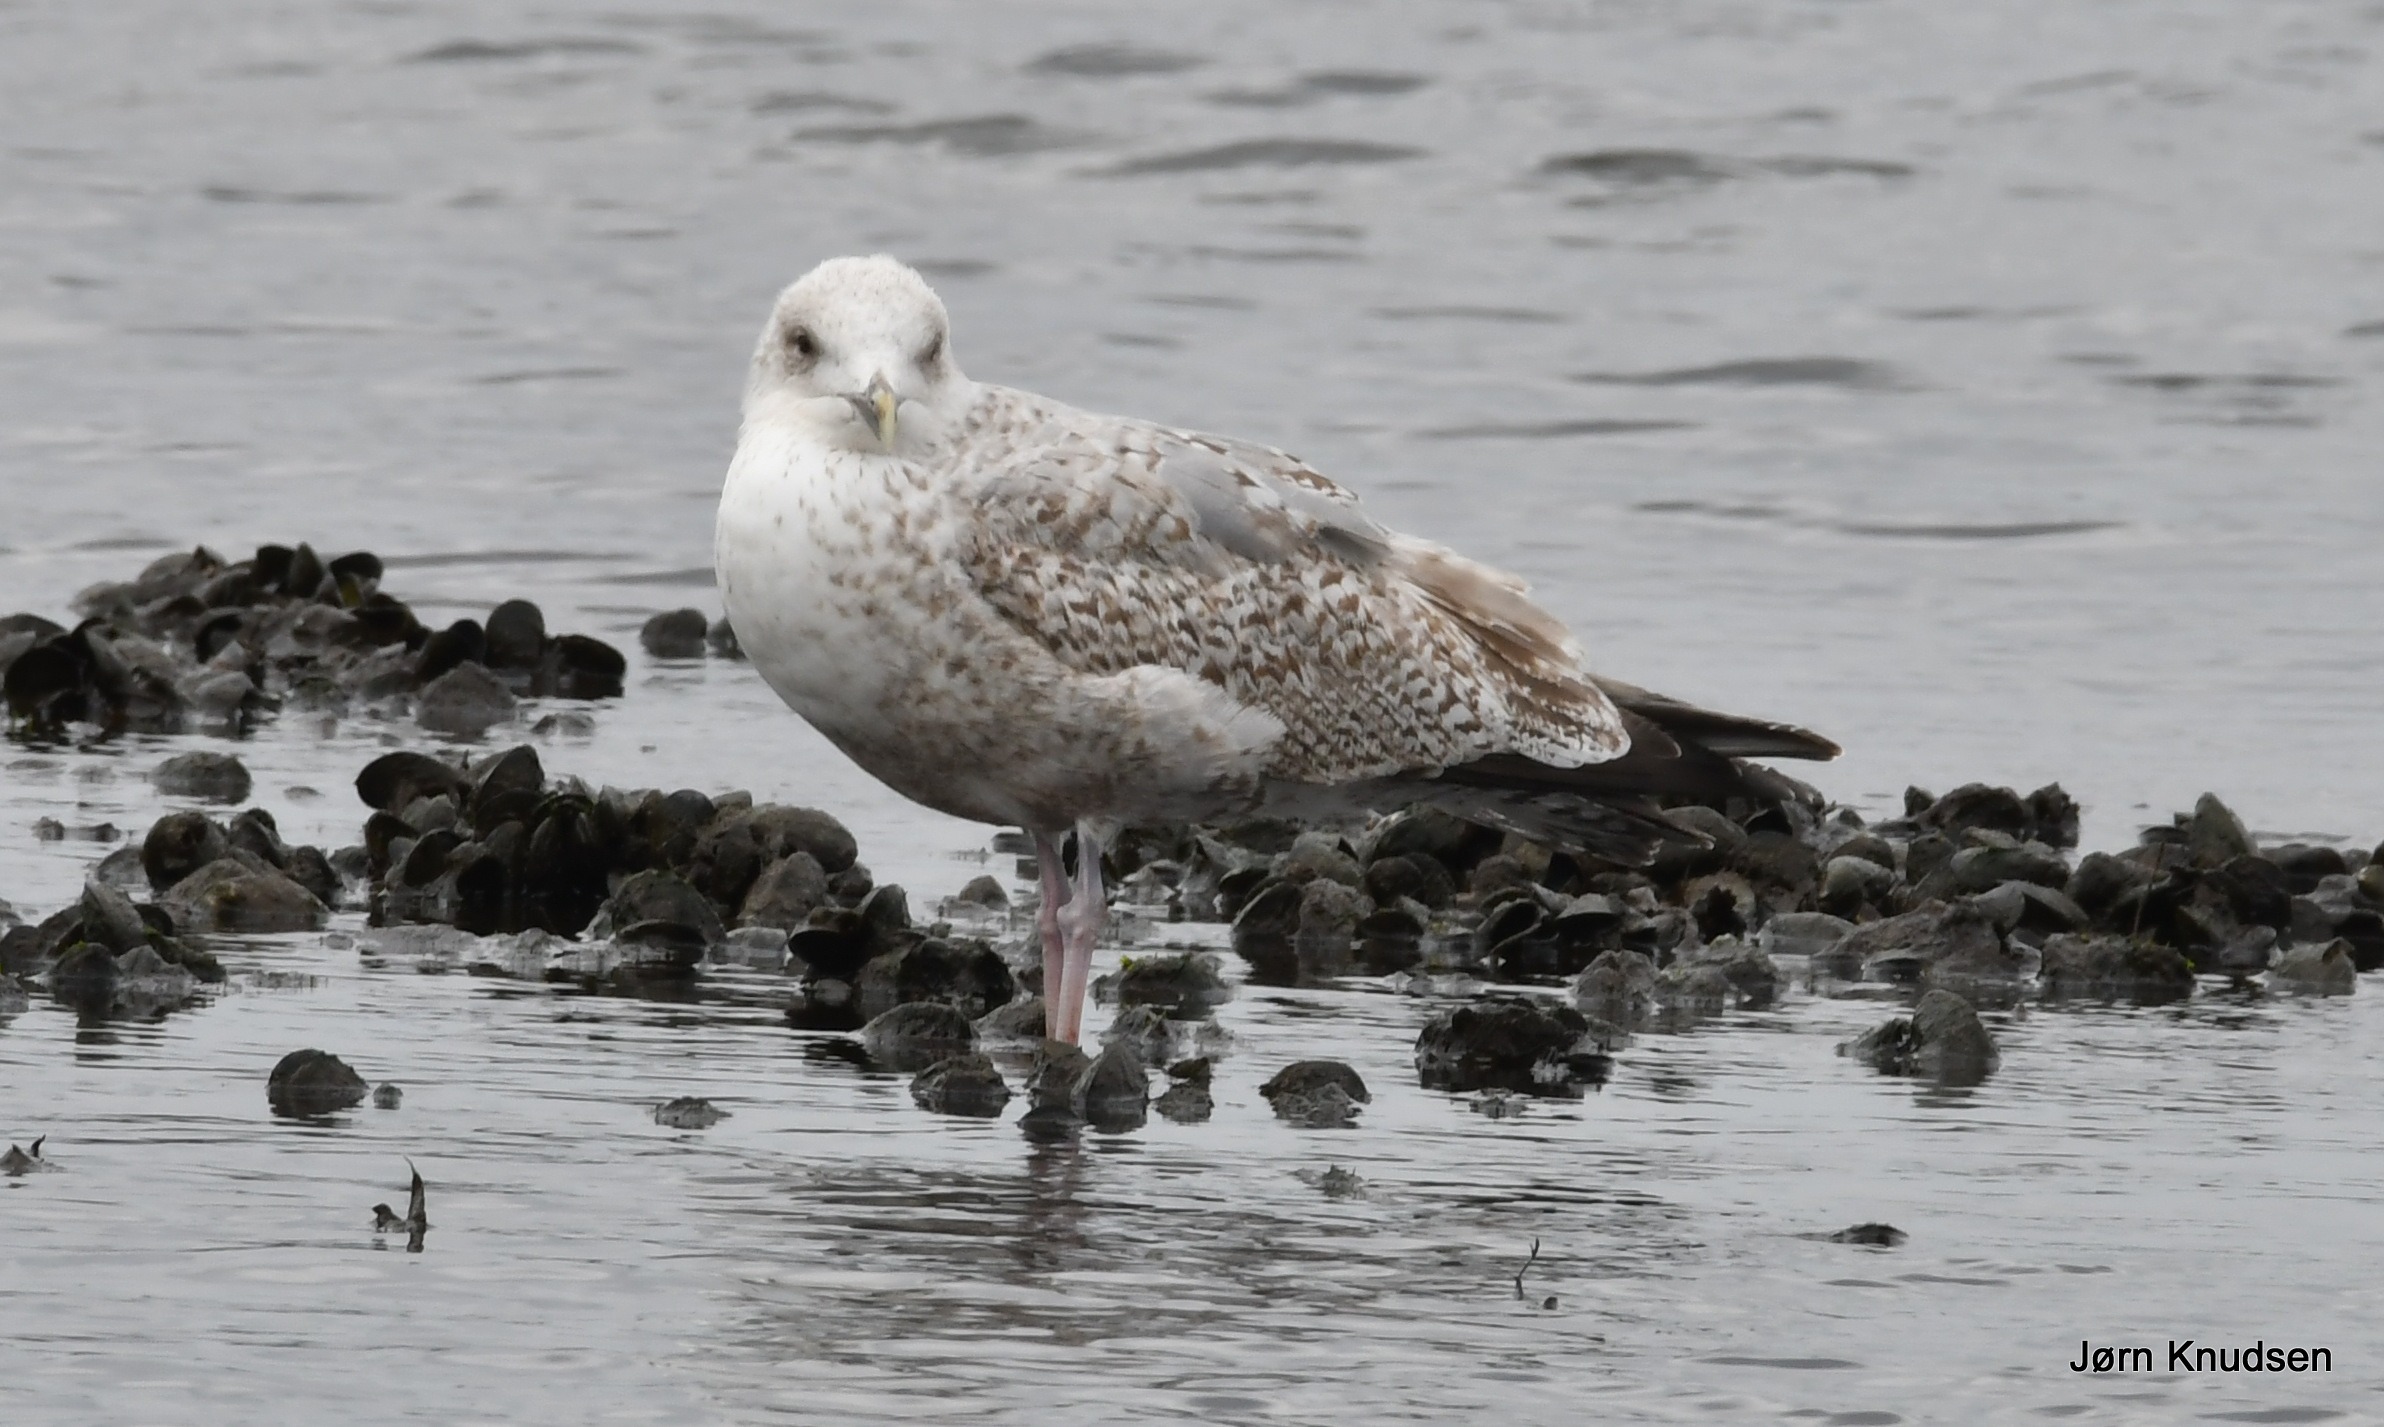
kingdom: Animalia
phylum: Chordata
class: Aves
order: Charadriiformes
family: Laridae
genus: Larus
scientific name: Larus argentatus
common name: Sølvmåge
